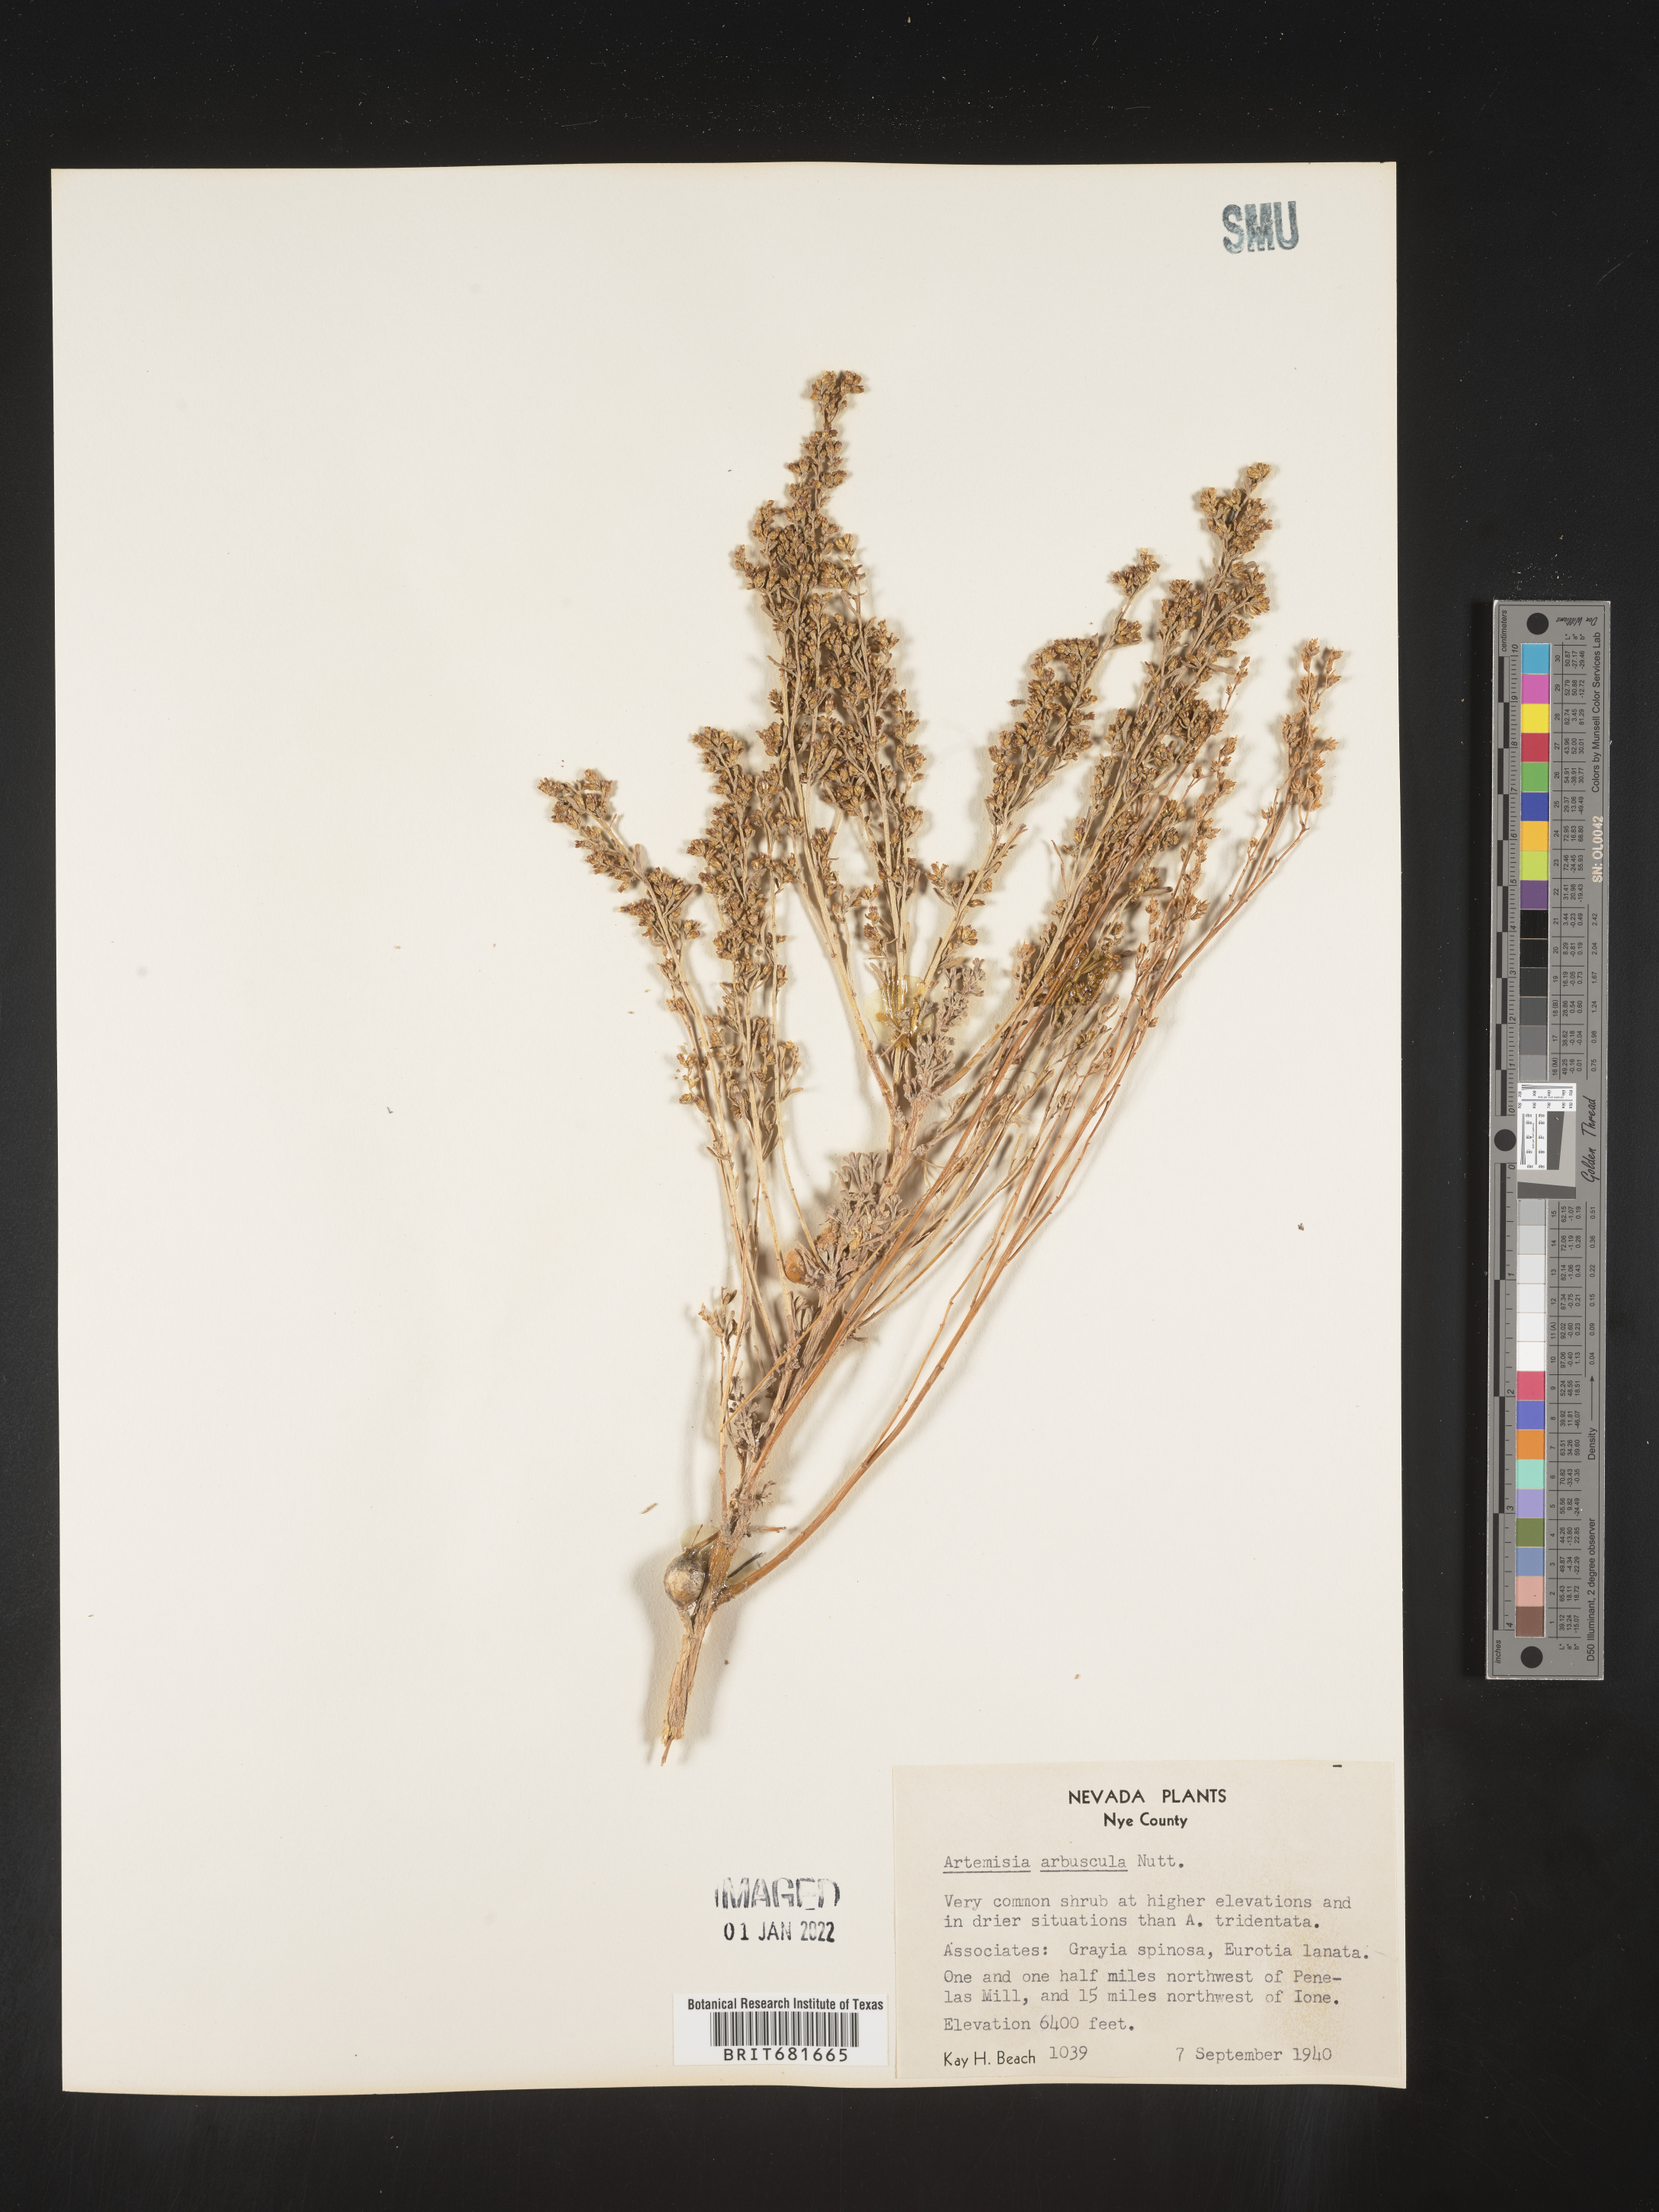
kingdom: Plantae
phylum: Tracheophyta
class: Magnoliopsida
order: Asterales
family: Asteraceae
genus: Artemisia
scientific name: Artemisia arbuscula
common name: Sagebrush
